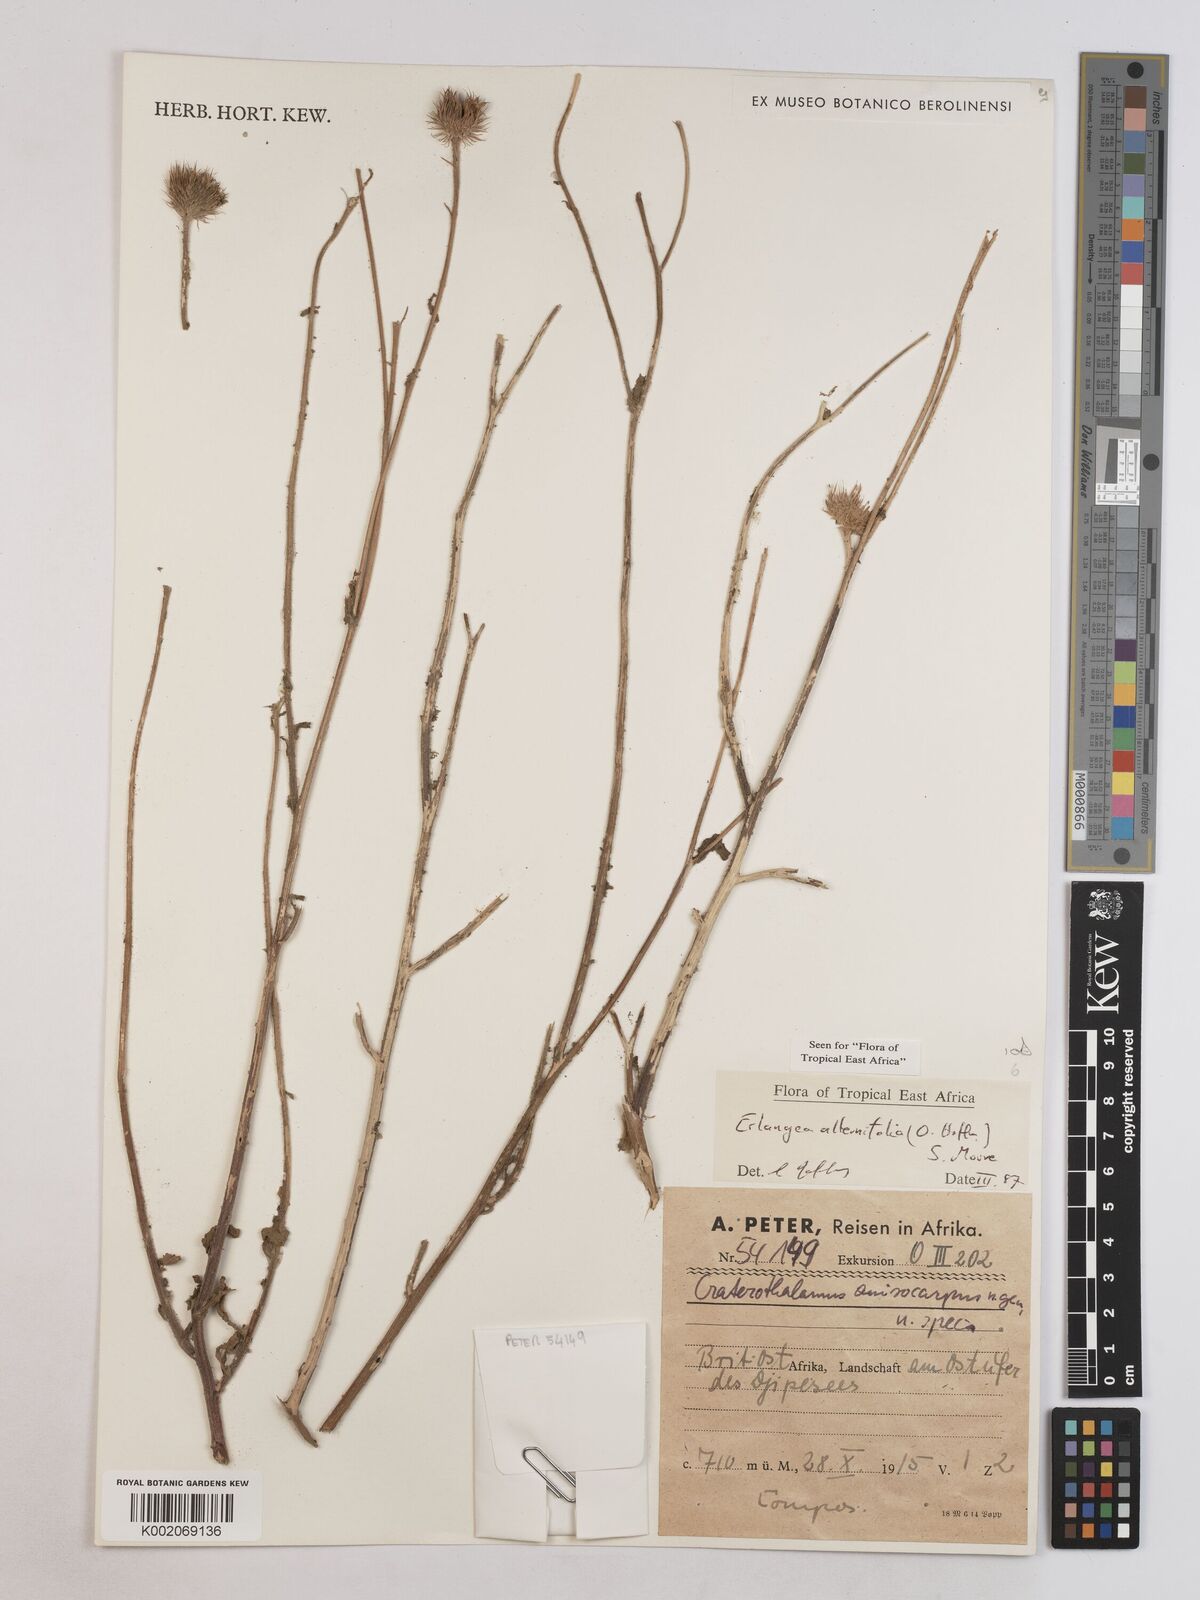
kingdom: Plantae
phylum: Tracheophyta
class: Magnoliopsida
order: Asterales
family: Asteraceae
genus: Erlangea
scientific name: Erlangea alternifolia
